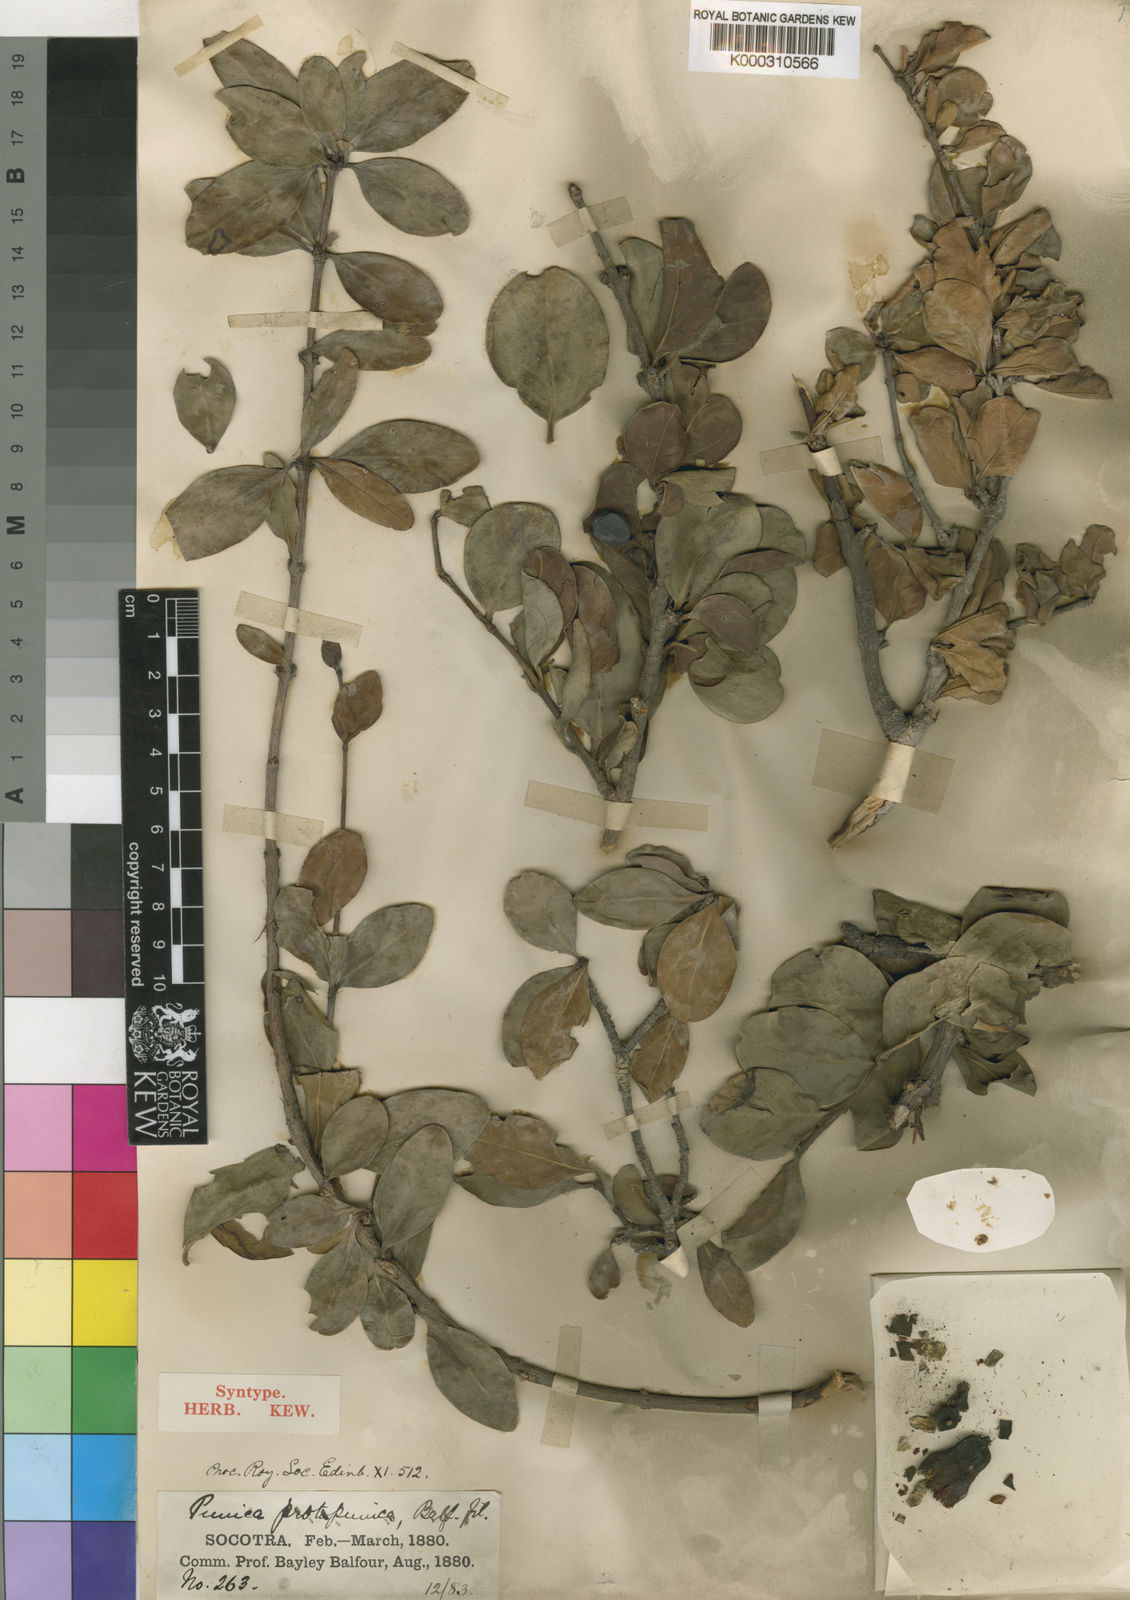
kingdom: Plantae
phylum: Tracheophyta
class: Magnoliopsida
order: Myrtales
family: Lythraceae
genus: Punica
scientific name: Punica protopunica
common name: Pomegranate tree
